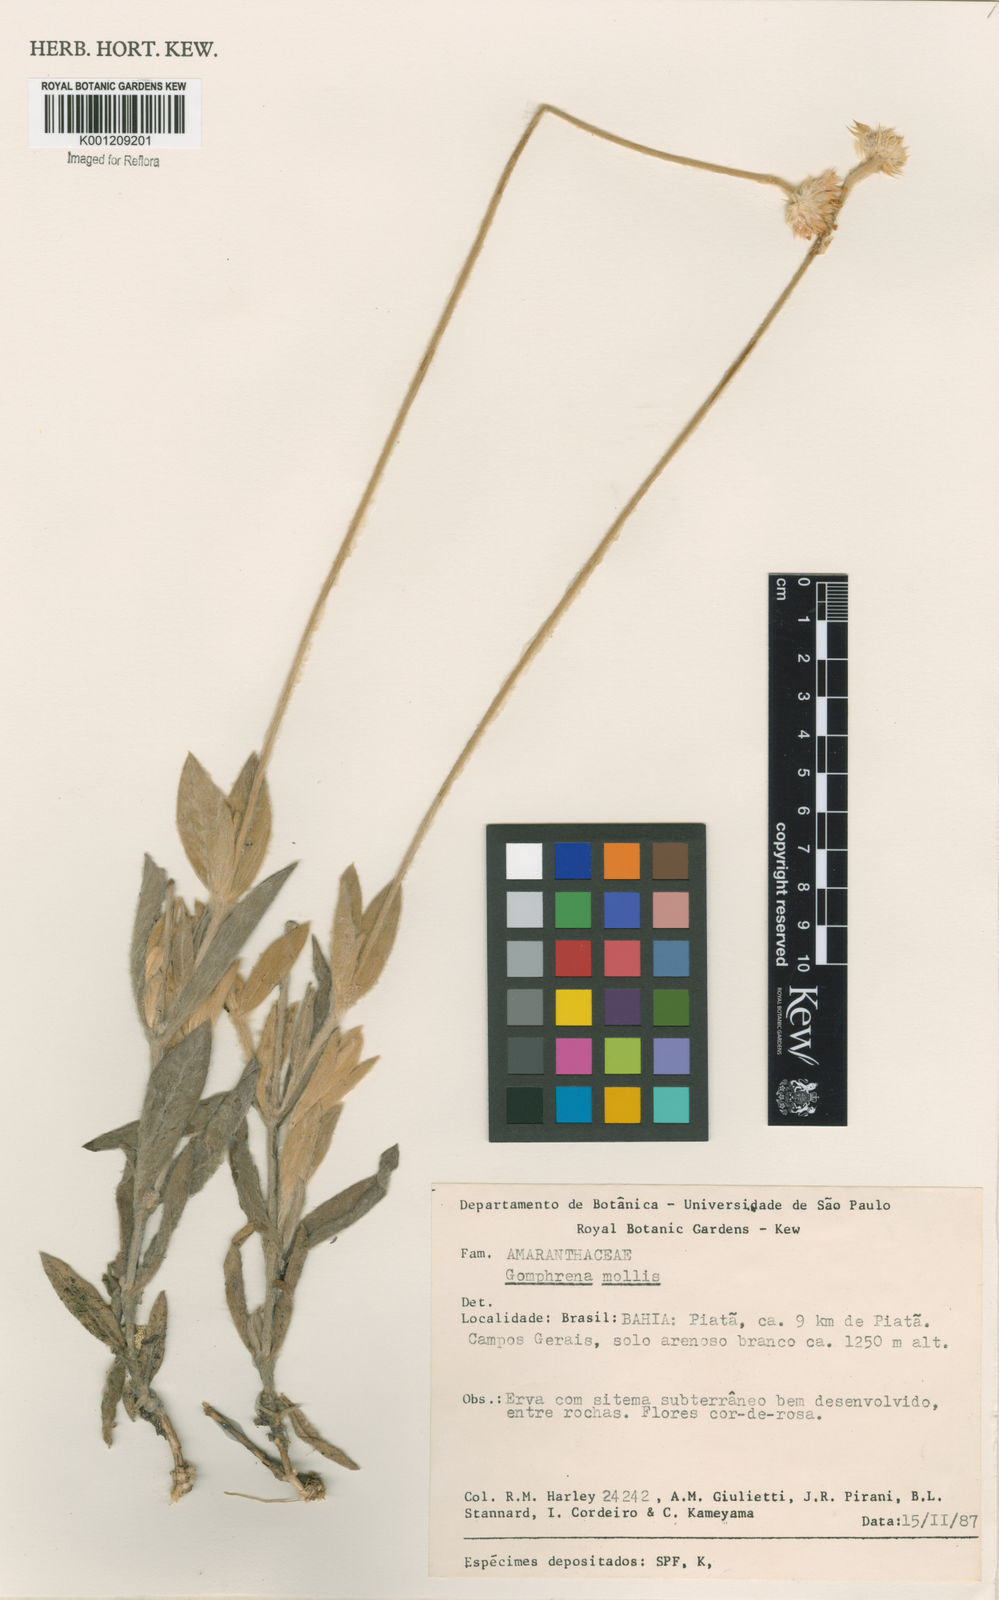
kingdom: Plantae
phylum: Tracheophyta
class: Magnoliopsida
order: Caryophyllales
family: Amaranthaceae
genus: Gomphrena
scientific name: Gomphrena mollis
